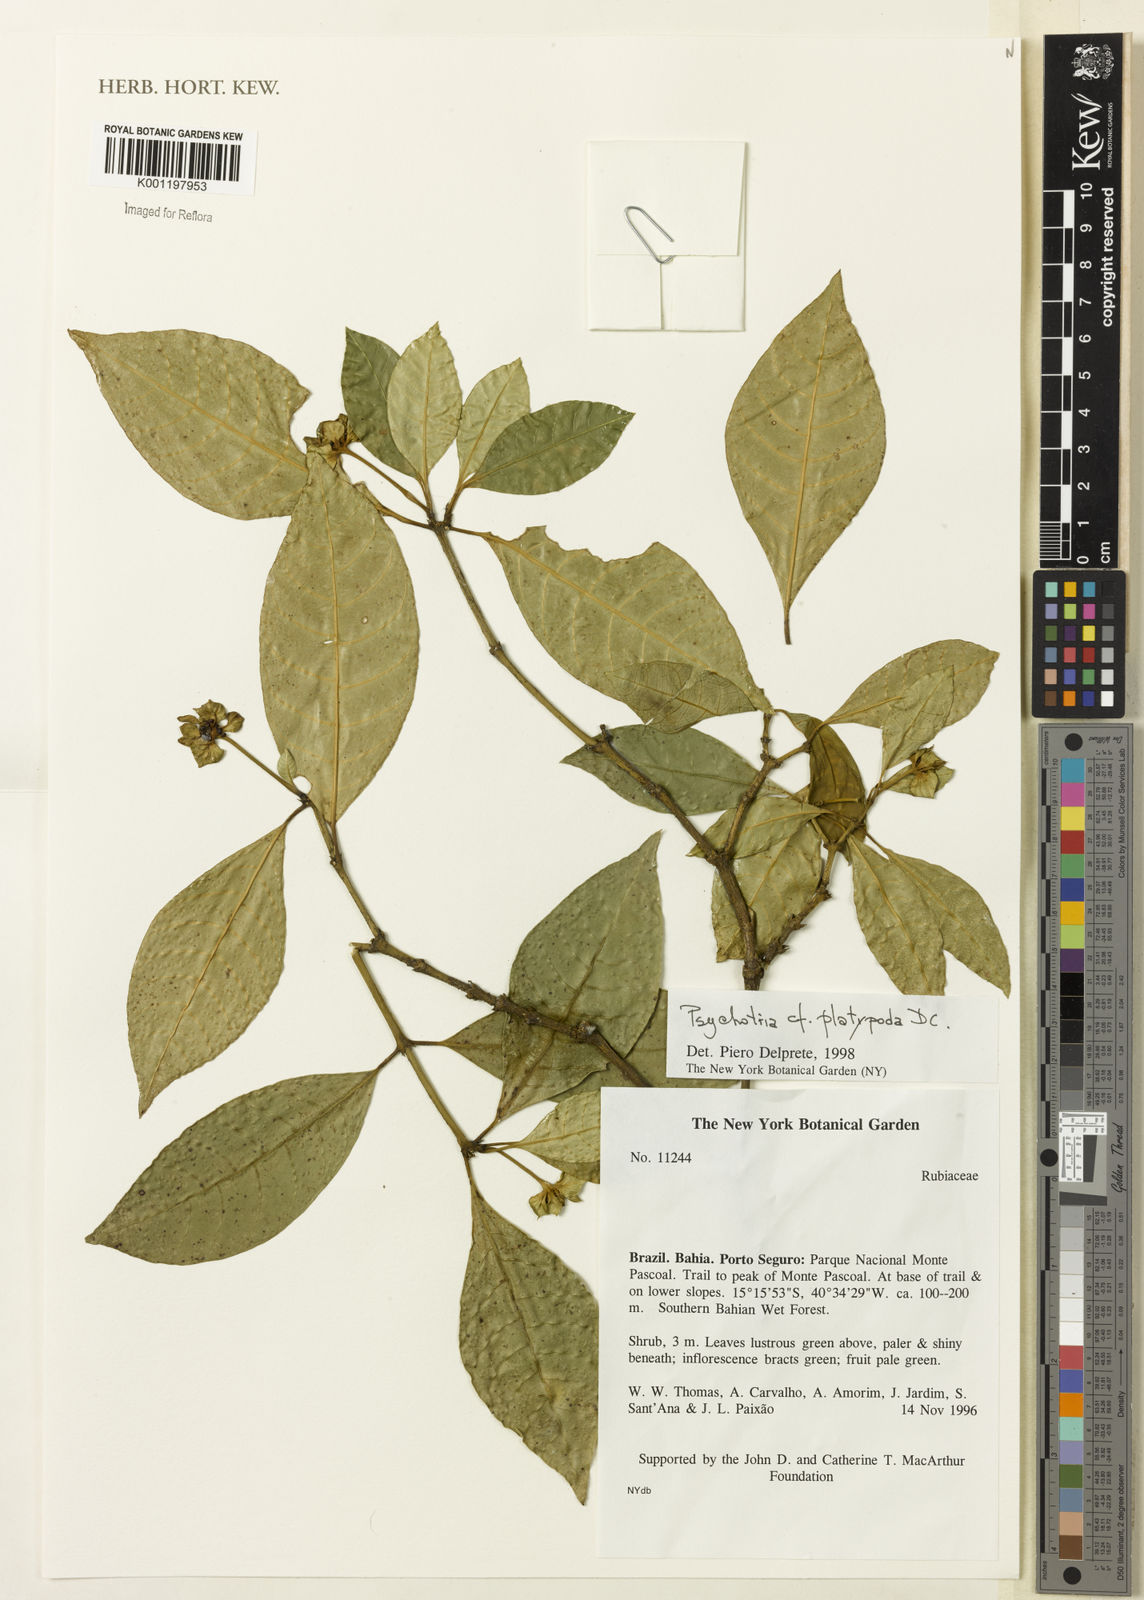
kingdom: Plantae
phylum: Tracheophyta
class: Magnoliopsida
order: Gentianales
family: Rubiaceae
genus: Palicourea
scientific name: Palicourea dichotoma
